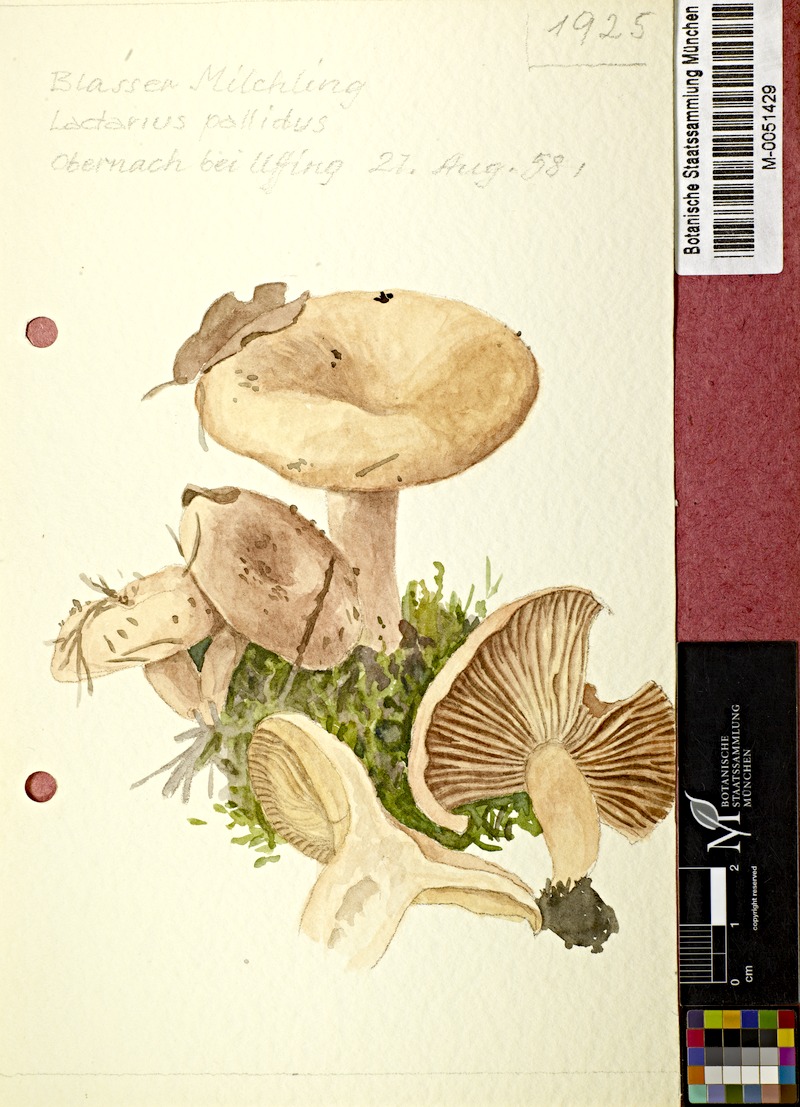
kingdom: Fungi
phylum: Basidiomycota
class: Agaricomycetes
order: Russulales
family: Russulaceae
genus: Lactarius
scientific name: Lactarius pallidus
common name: Pale milkcap
